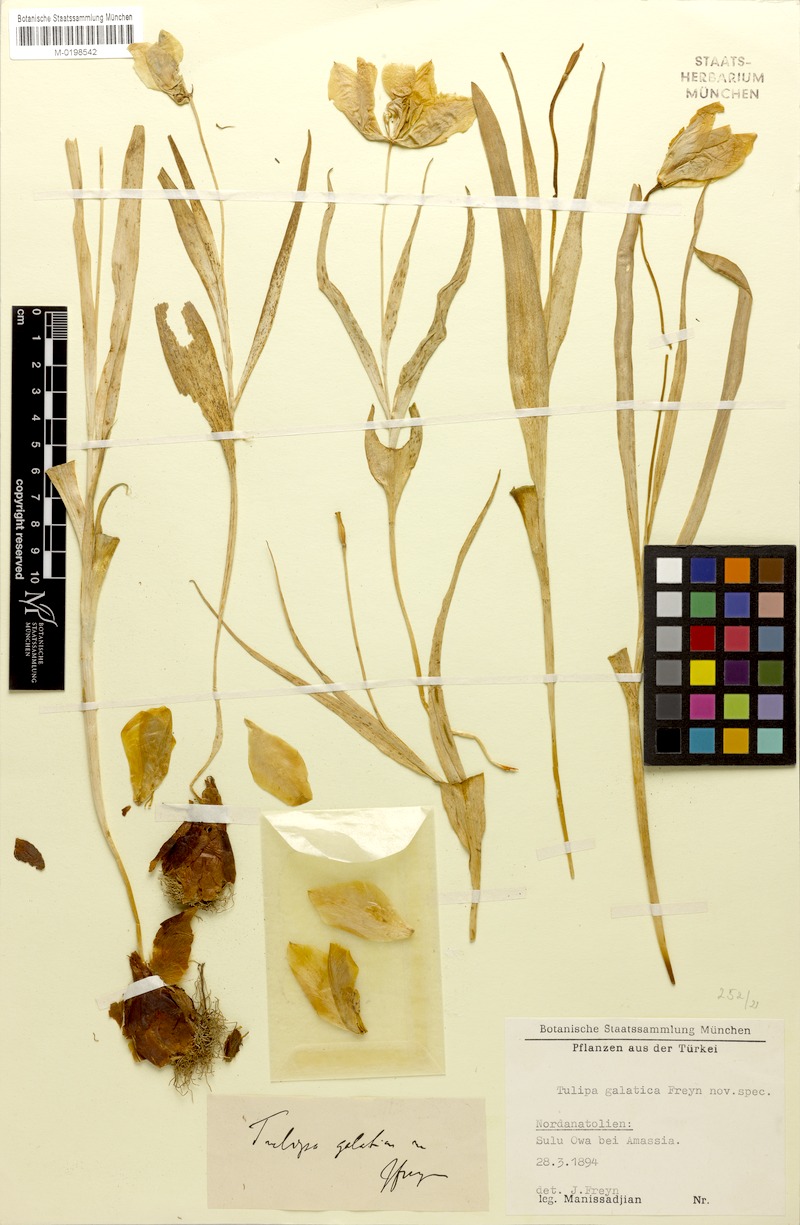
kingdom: Plantae
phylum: Tracheophyta
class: Liliopsida
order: Liliales
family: Liliaceae
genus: Tulipa
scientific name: Tulipa gesneriana
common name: Garden tulip
